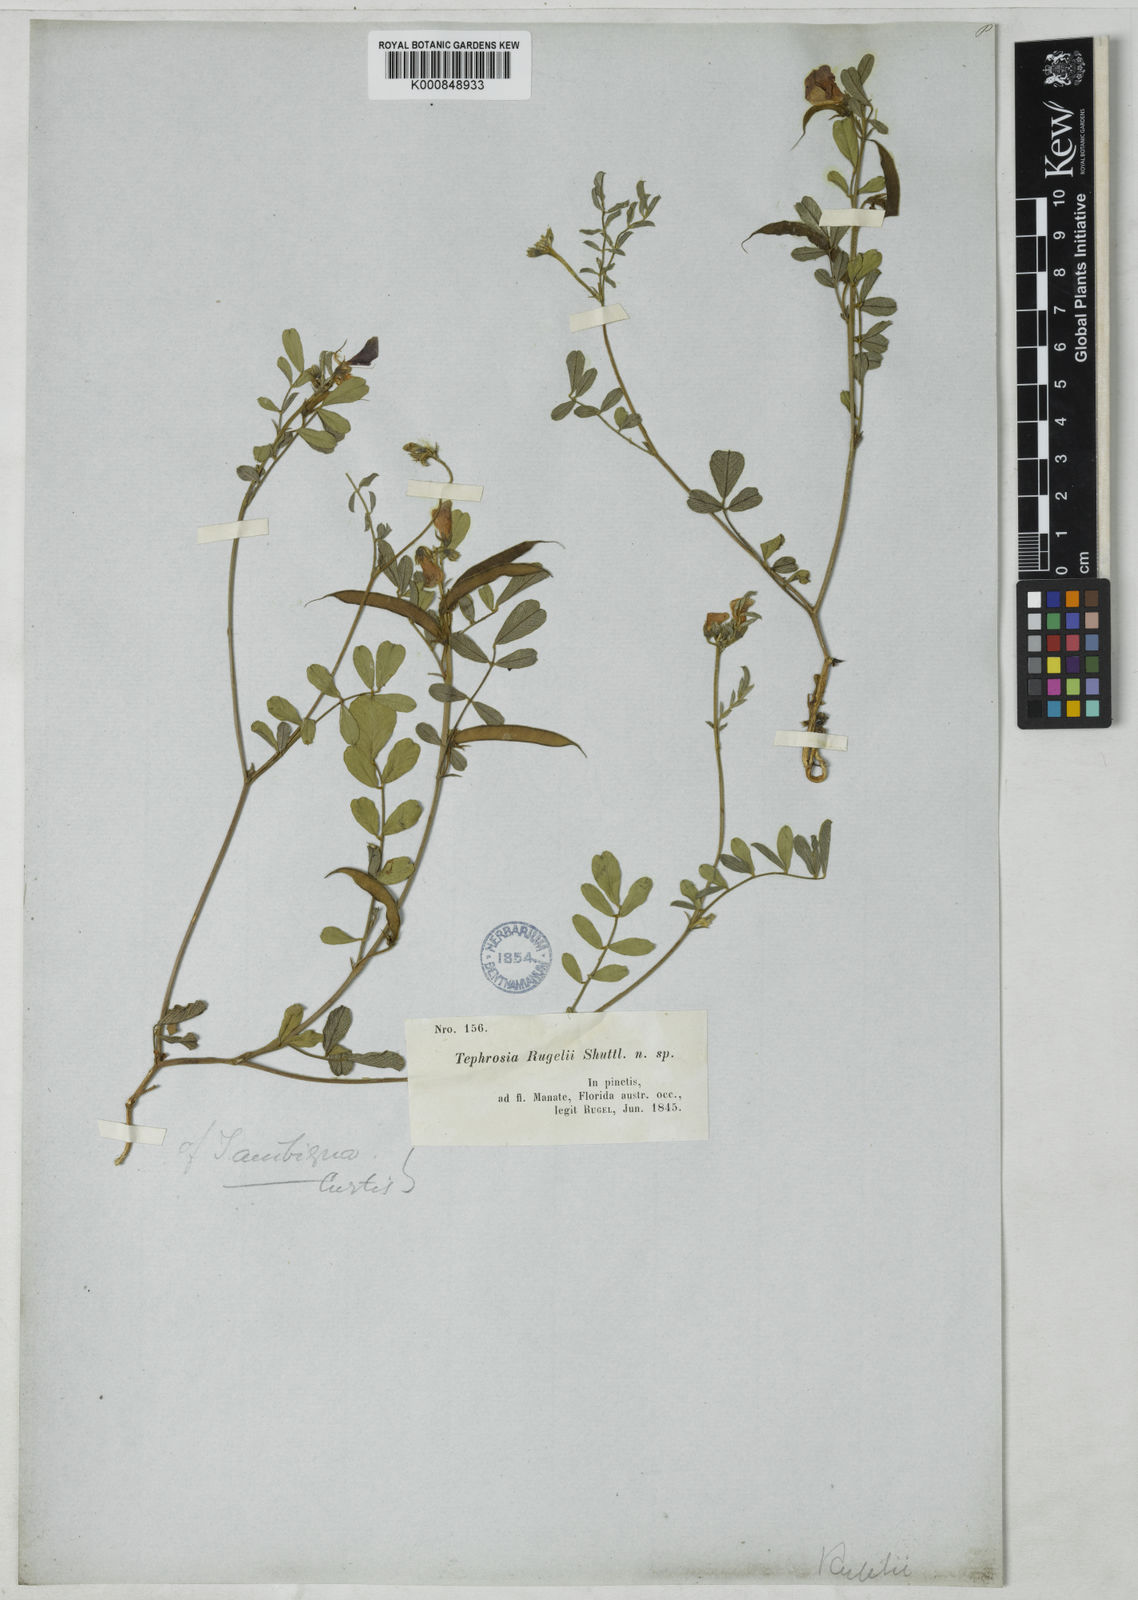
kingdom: Plantae
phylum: Tracheophyta
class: Magnoliopsida
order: Fabales
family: Fabaceae
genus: Tephrosia
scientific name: Tephrosia rugelii
